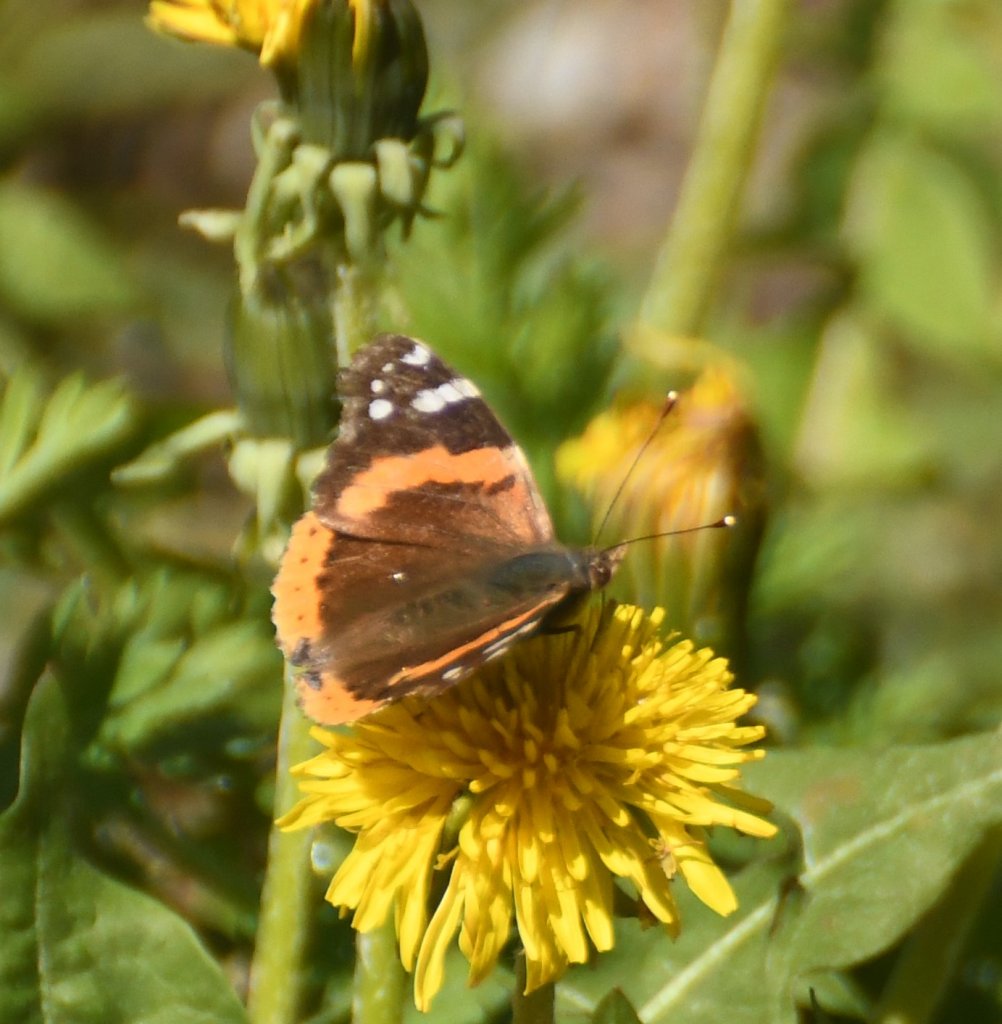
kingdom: Animalia
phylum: Arthropoda
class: Insecta
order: Lepidoptera
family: Nymphalidae
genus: Vanessa
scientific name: Vanessa atalanta
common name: Red Admiral
